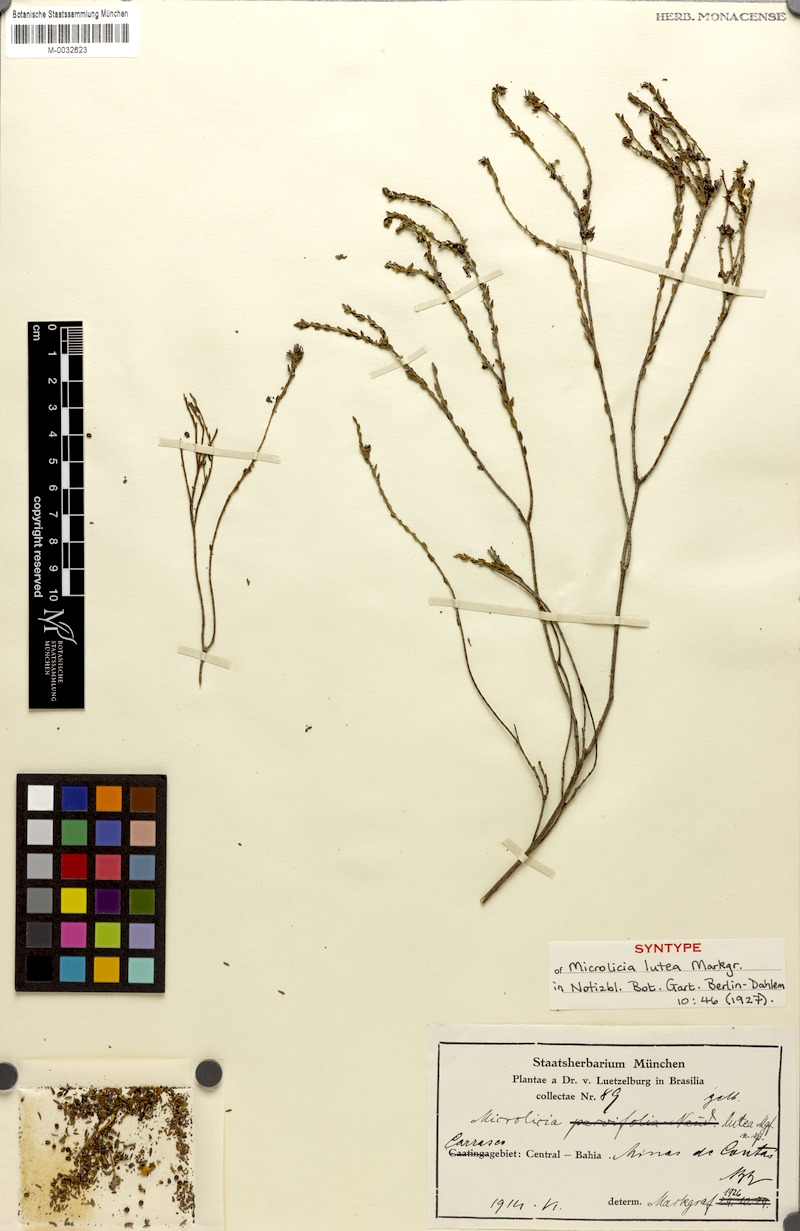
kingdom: Plantae
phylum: Tracheophyta
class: Magnoliopsida
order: Myrtales
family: Melastomataceae
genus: Microlicia
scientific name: Microlicia lutea
